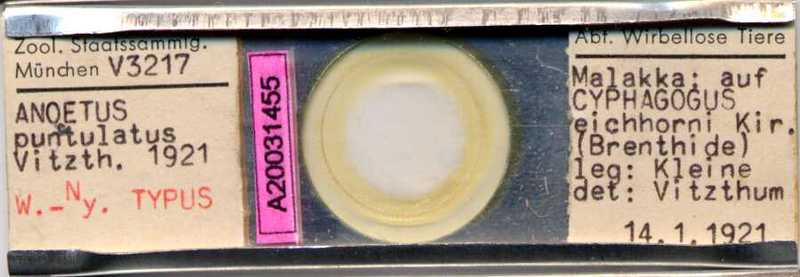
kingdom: Animalia
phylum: Arthropoda
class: Arachnida
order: Sarcoptiformes
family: Histiostomatidae
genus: Anoetus
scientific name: Anoetus punctulatus
